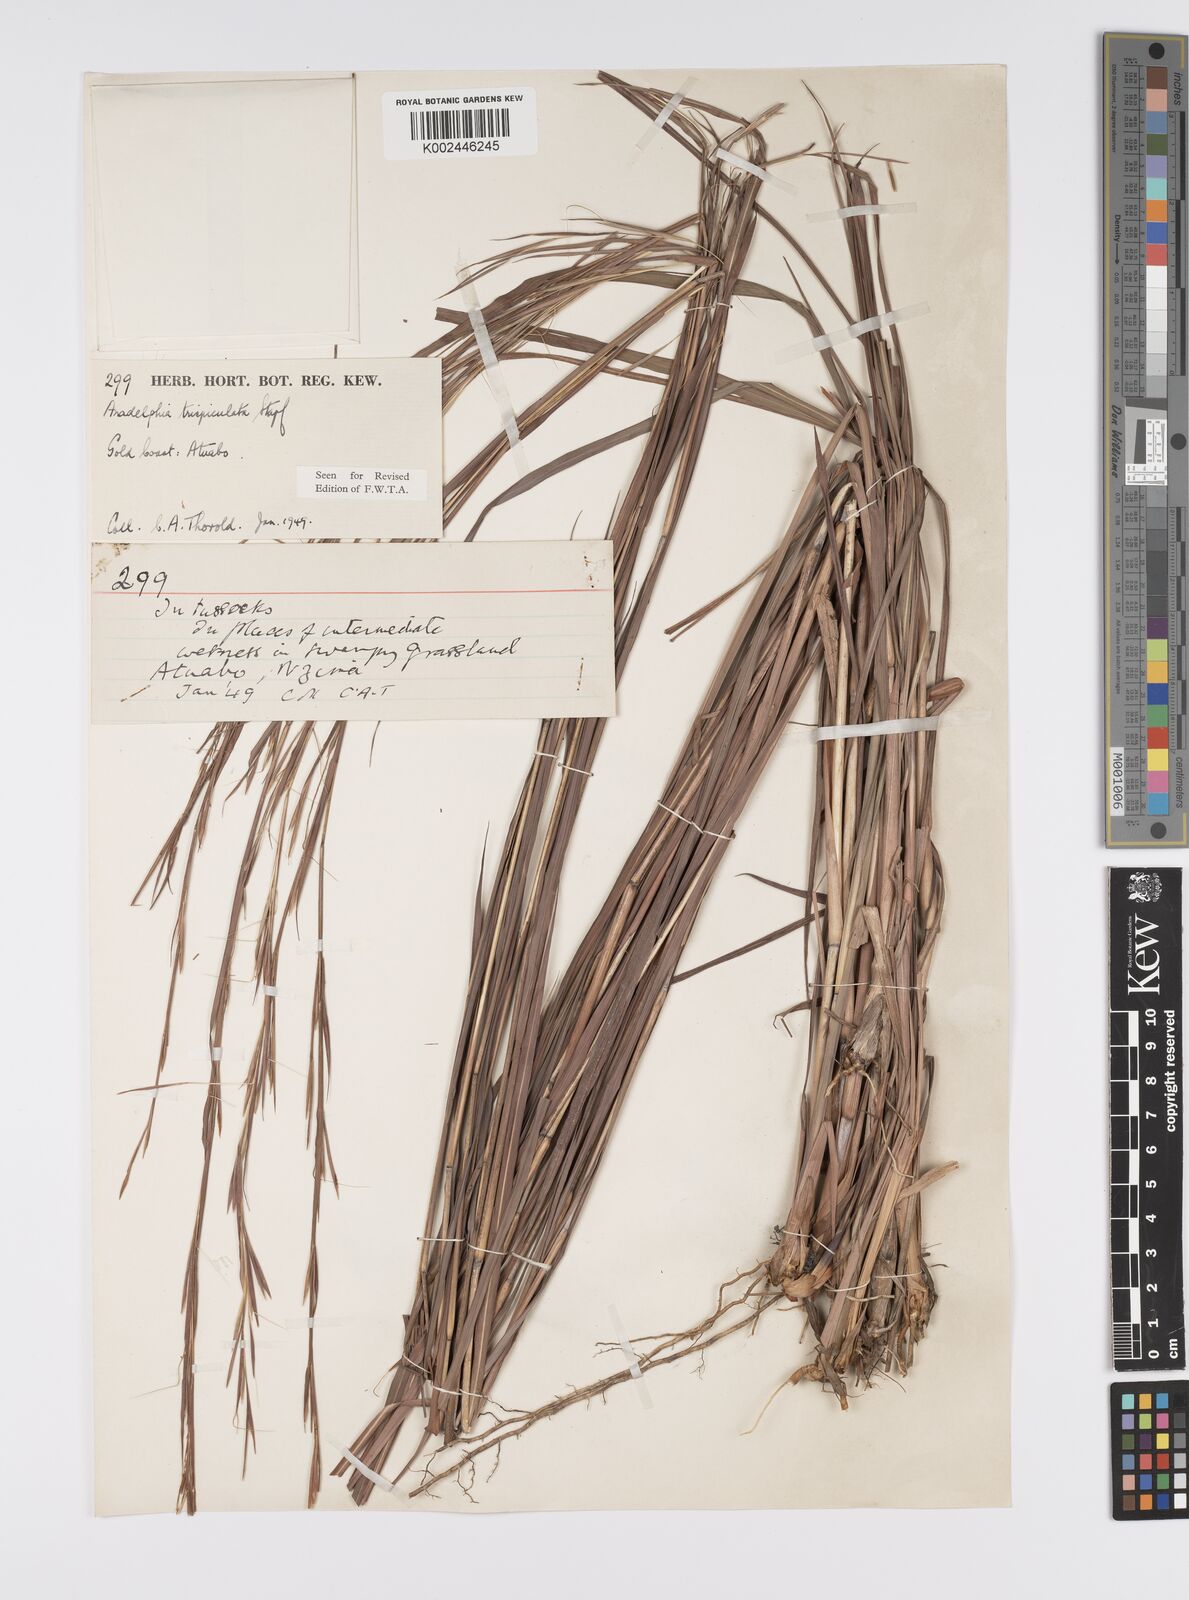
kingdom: Plantae
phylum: Tracheophyta
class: Liliopsida
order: Poales
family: Poaceae
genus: Anadelphia
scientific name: Anadelphia trispiculata
